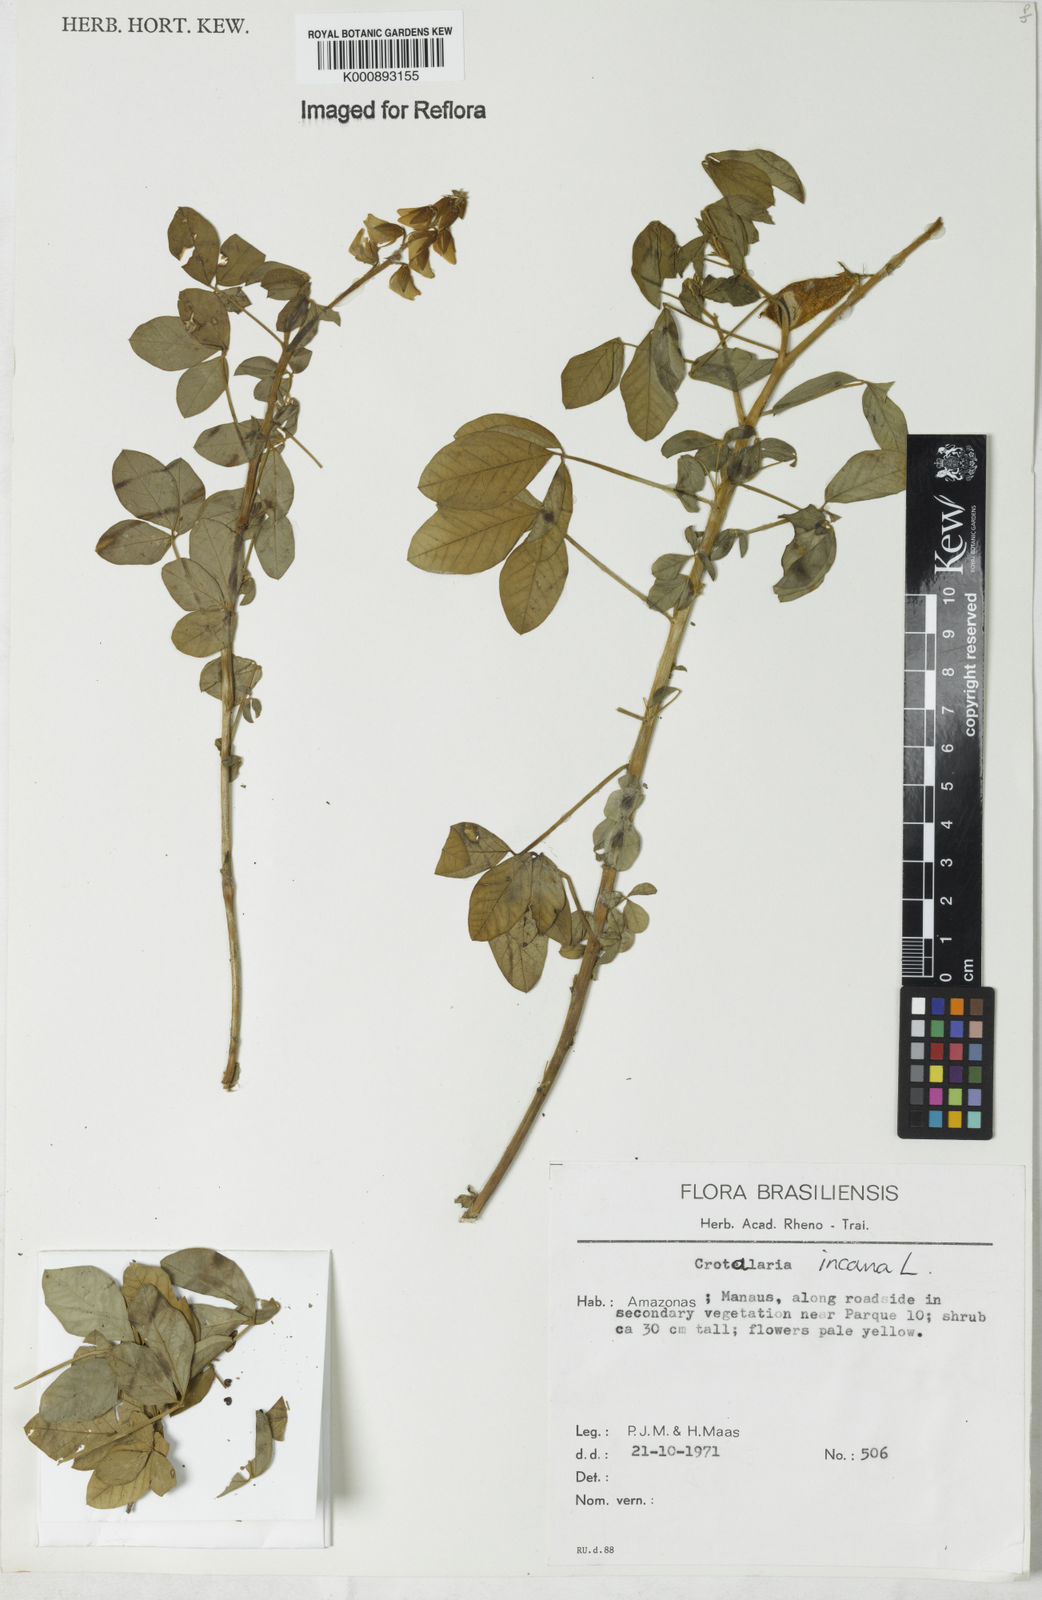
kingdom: Plantae
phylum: Tracheophyta
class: Magnoliopsida
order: Fabales
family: Fabaceae
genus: Crotalaria
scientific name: Crotalaria incana
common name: Shakeshake
